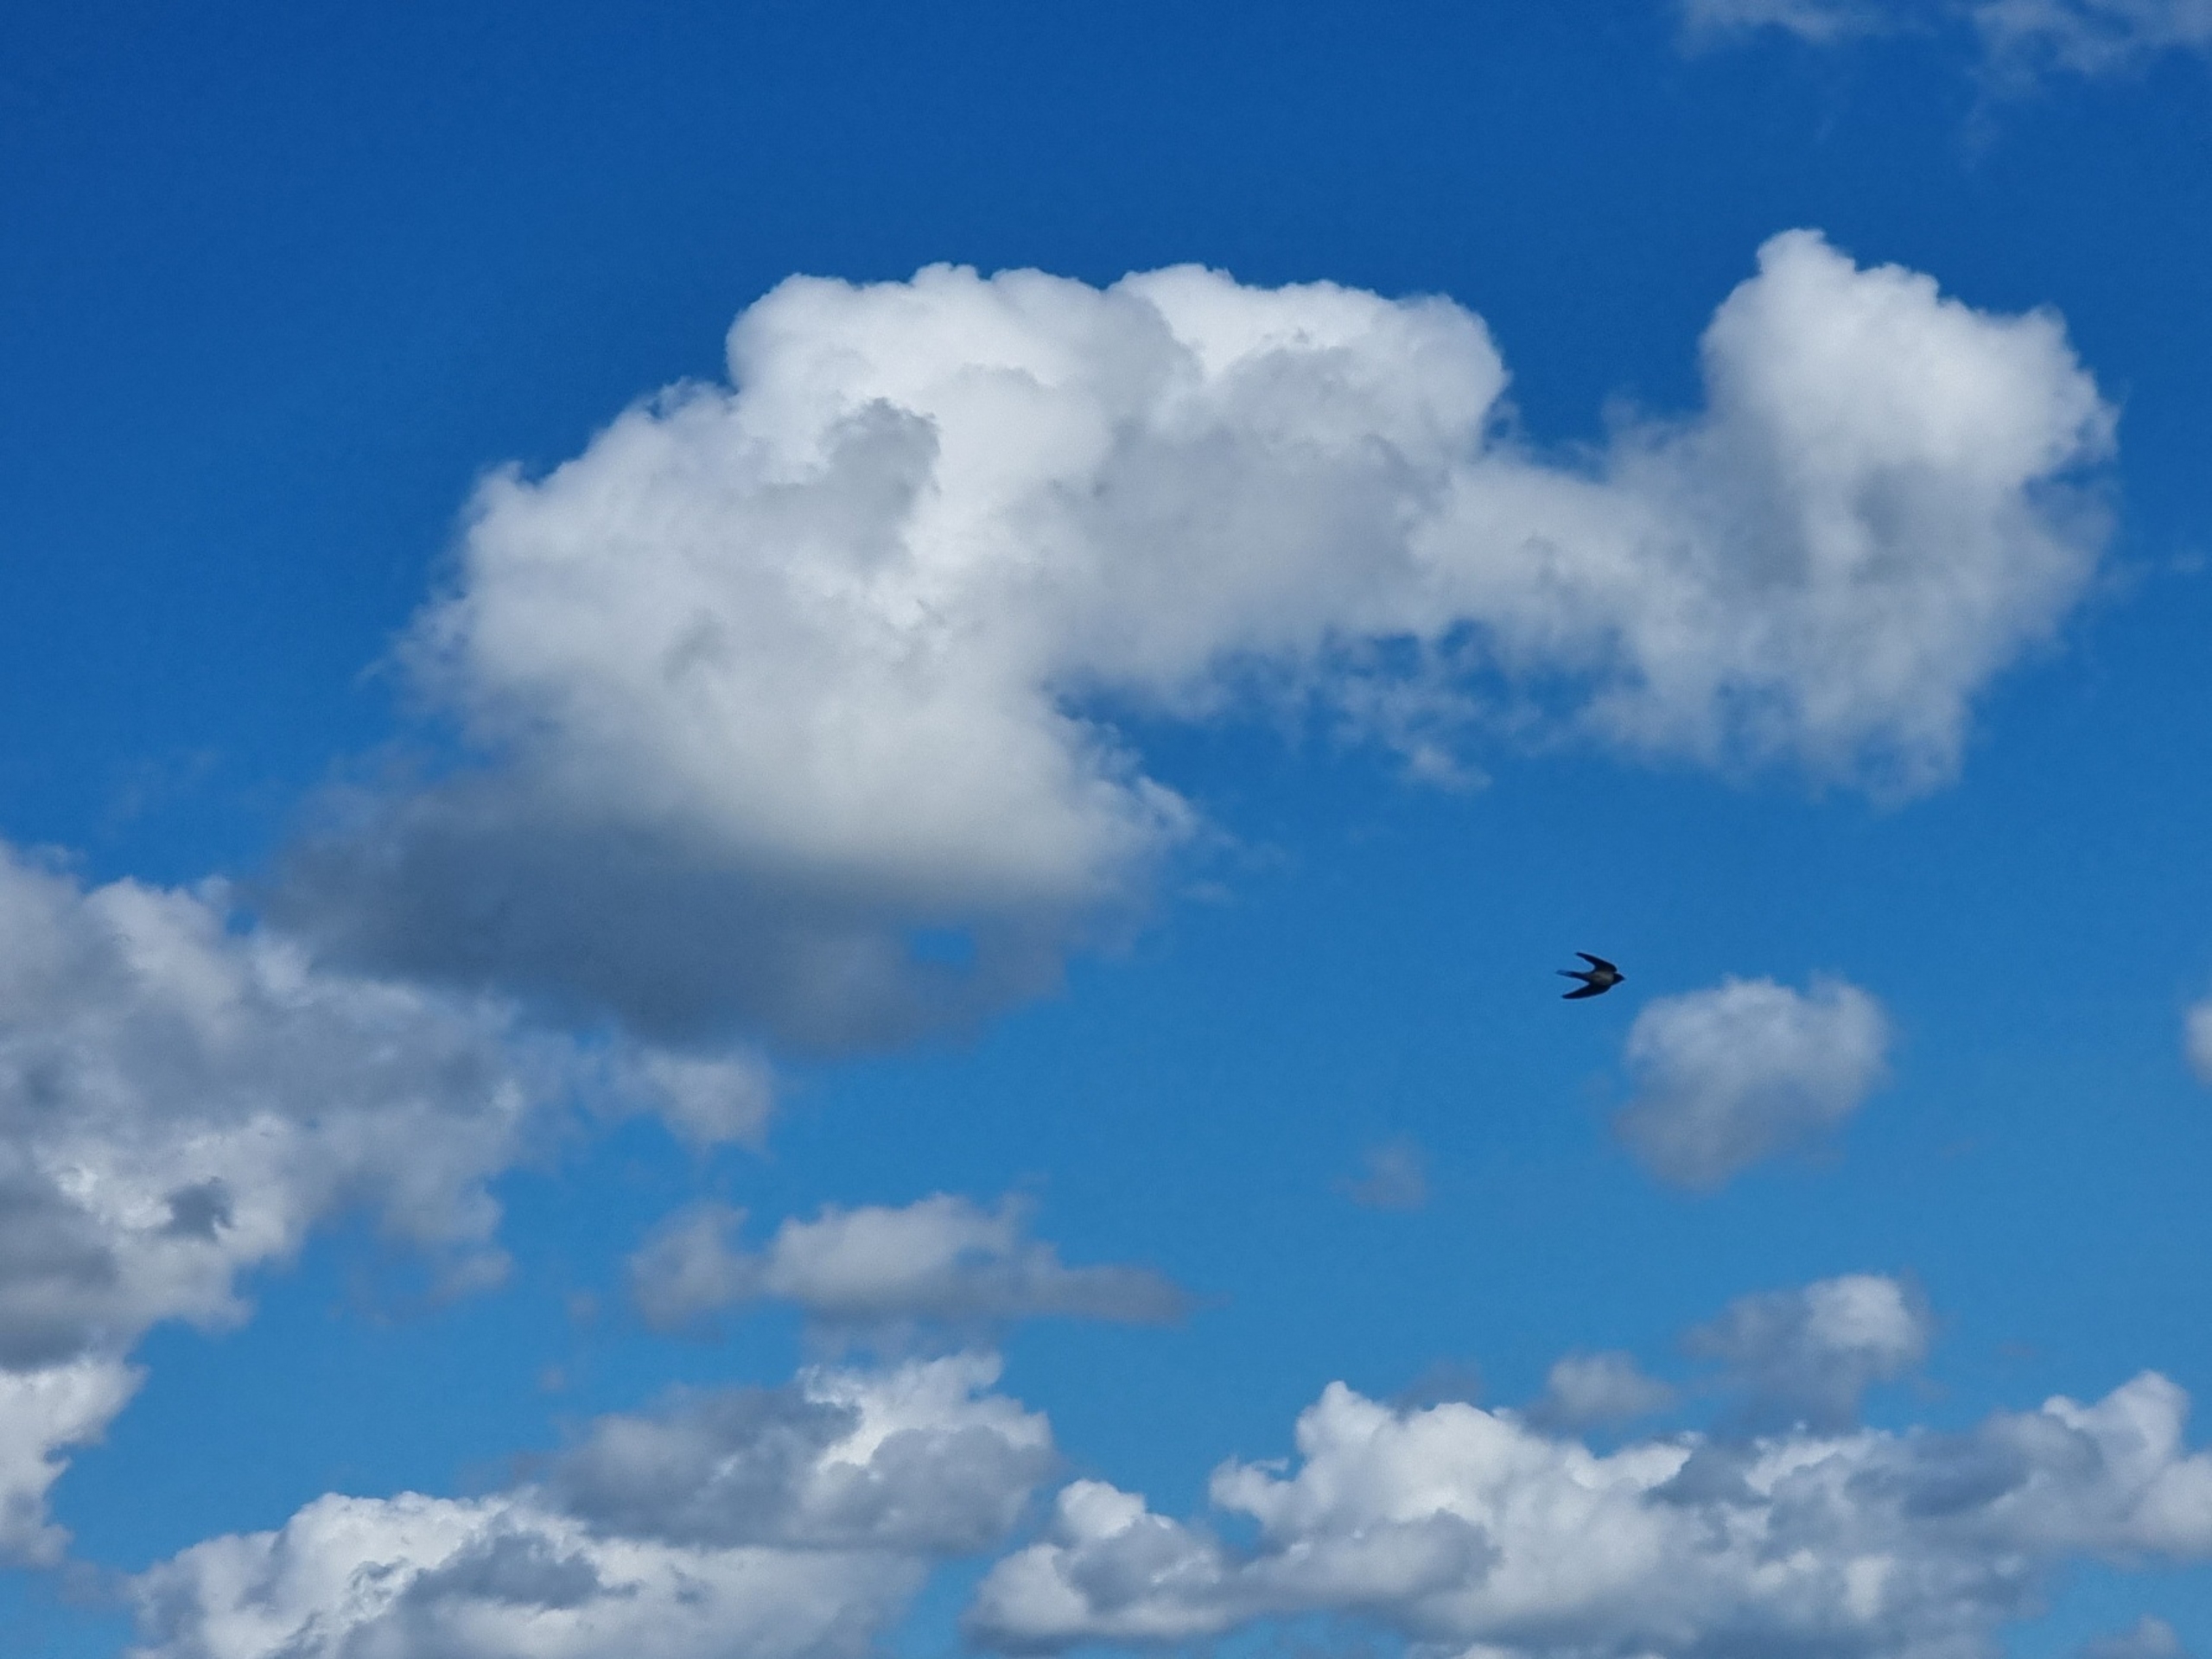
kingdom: Animalia
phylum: Chordata
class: Aves
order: Passeriformes
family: Hirundinidae
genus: Hirundo
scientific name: Hirundo rustica
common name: Landsvale
